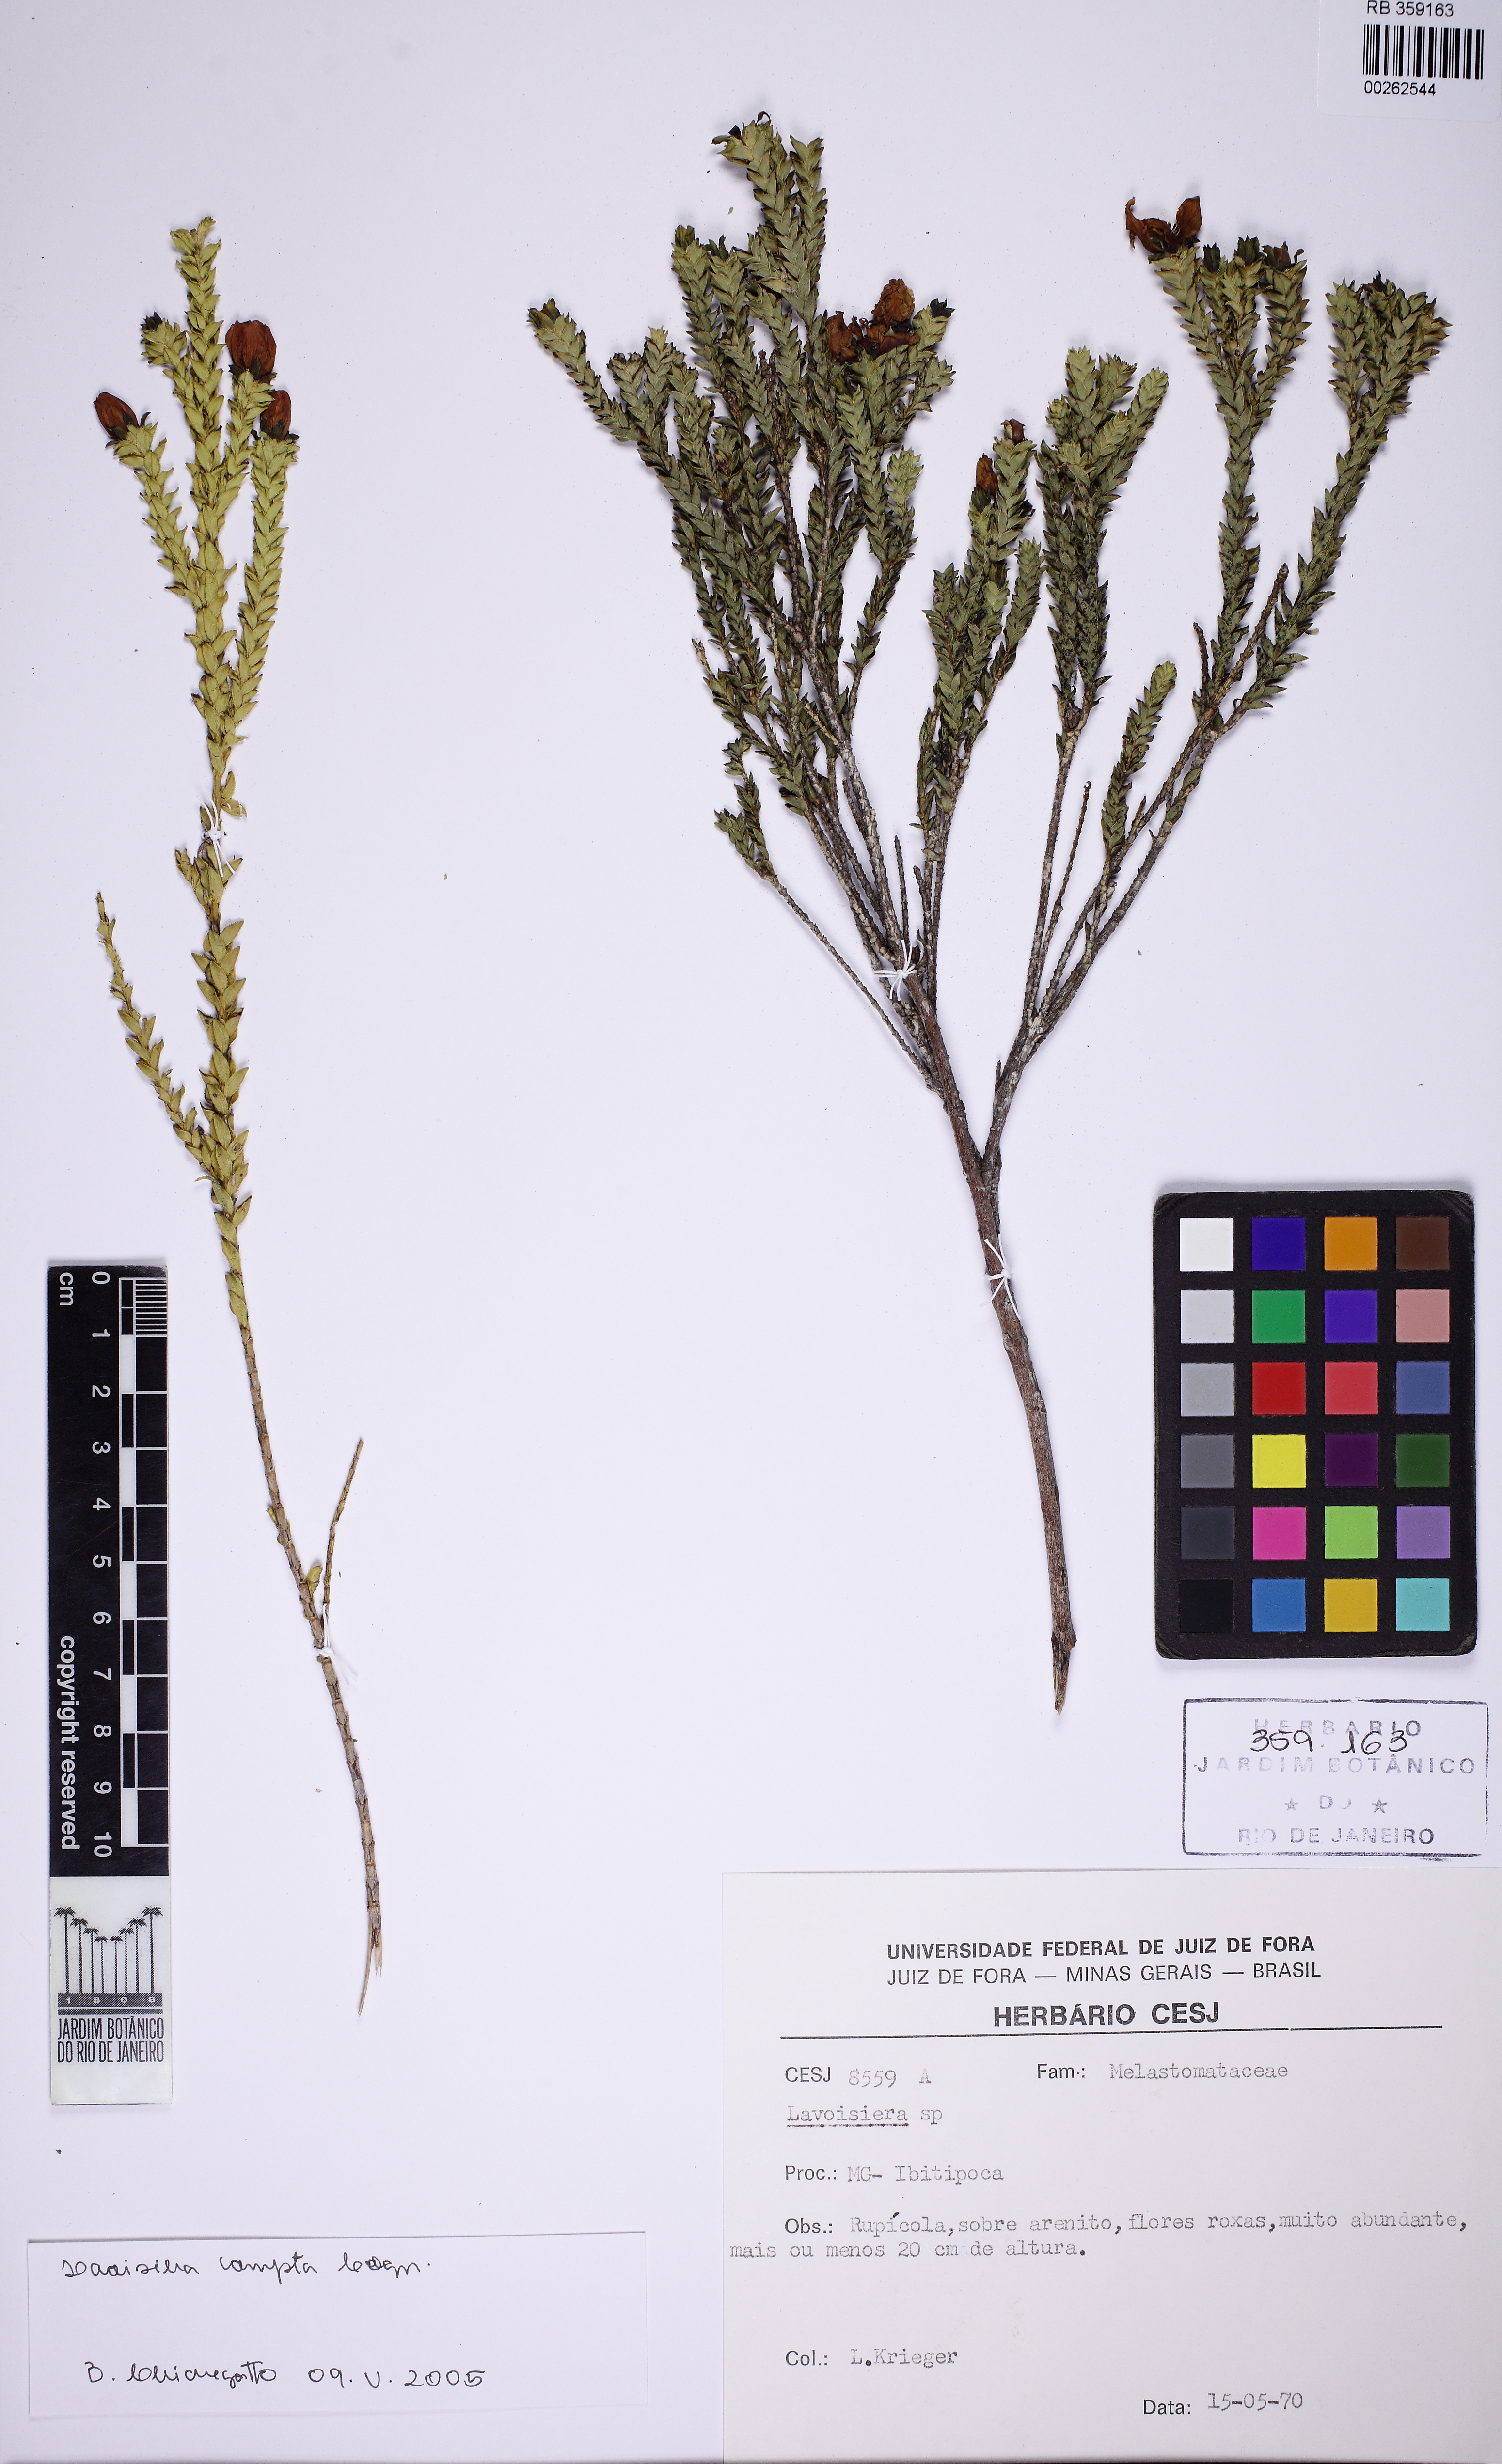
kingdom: Plantae
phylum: Tracheophyta
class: Magnoliopsida
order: Myrtales
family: Melastomataceae
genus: Microlicia
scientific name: Microlicia cataphracta
